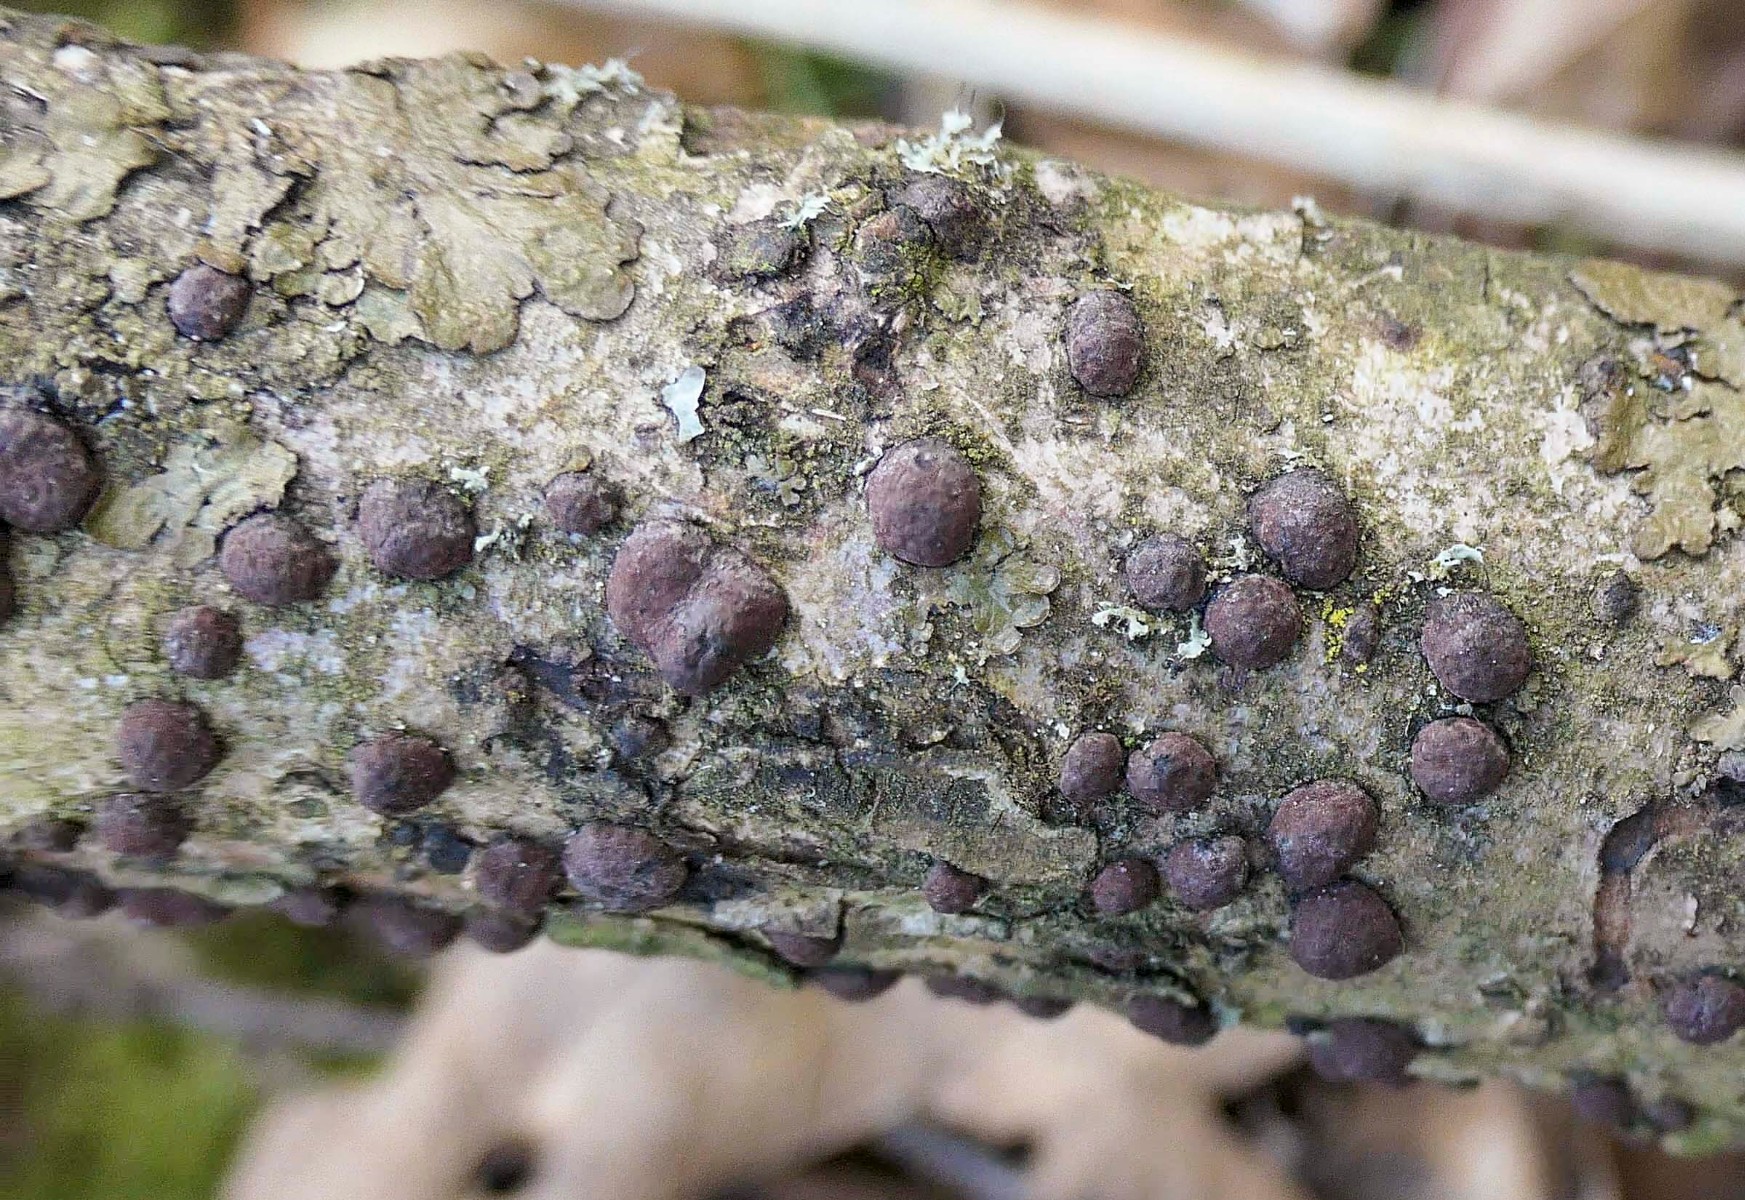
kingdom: Fungi
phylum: Ascomycota
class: Sordariomycetes
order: Xylariales
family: Hypoxylaceae
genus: Hypoxylon
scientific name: Hypoxylon howeanum
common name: halvkugleformet kulbær
